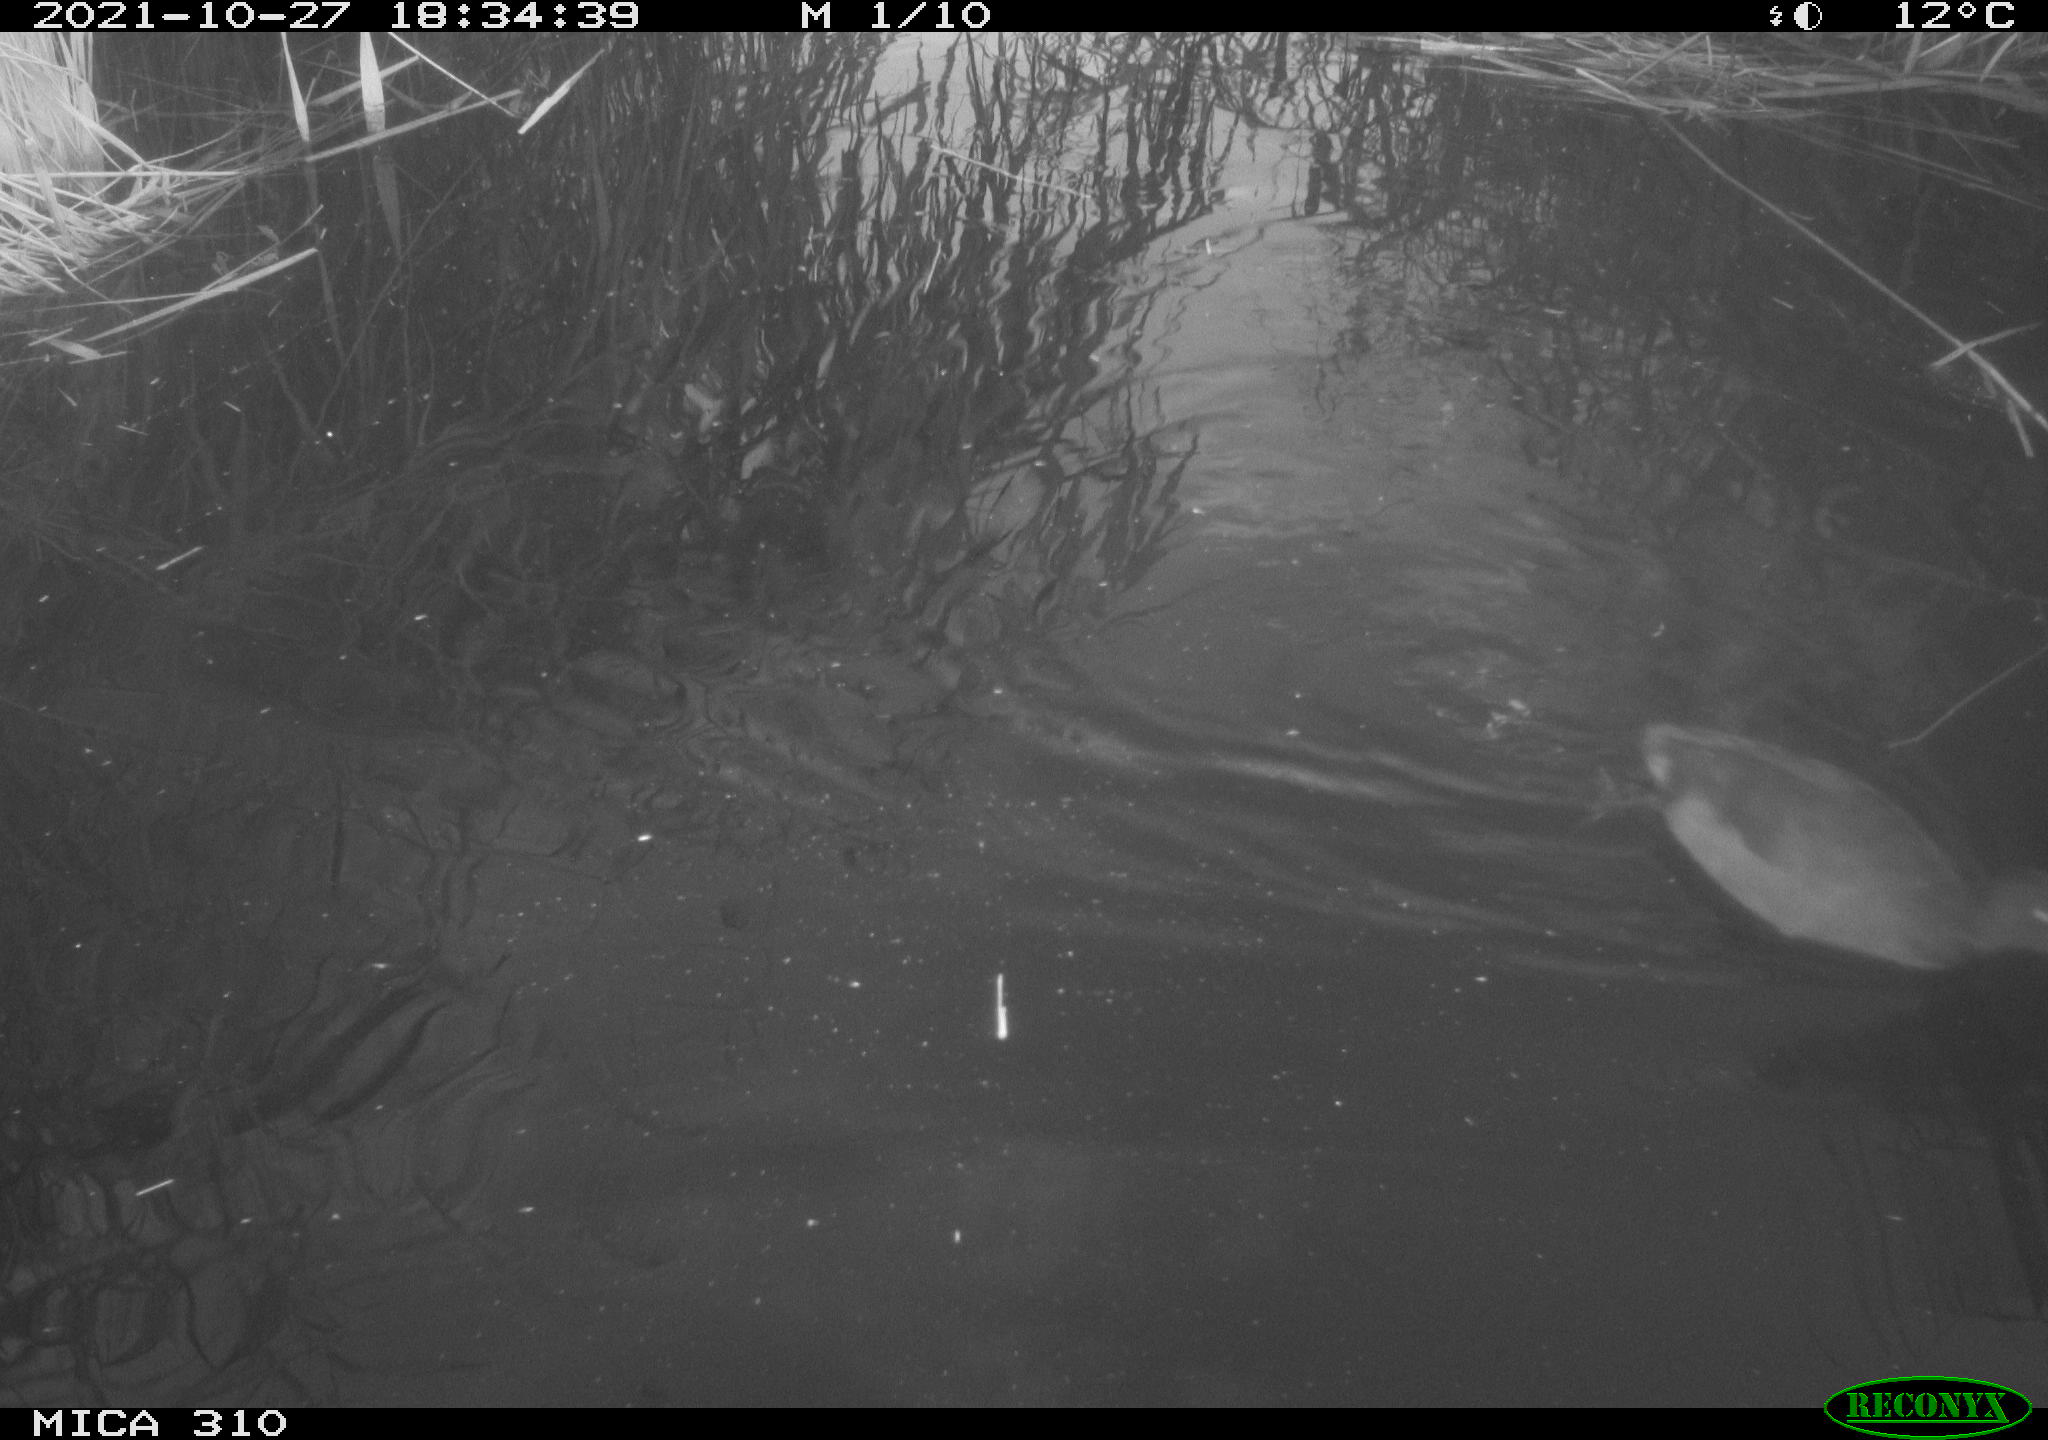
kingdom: Animalia
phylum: Chordata
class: Aves
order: Gruiformes
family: Rallidae
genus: Fulica
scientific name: Fulica atra
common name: Eurasian coot
